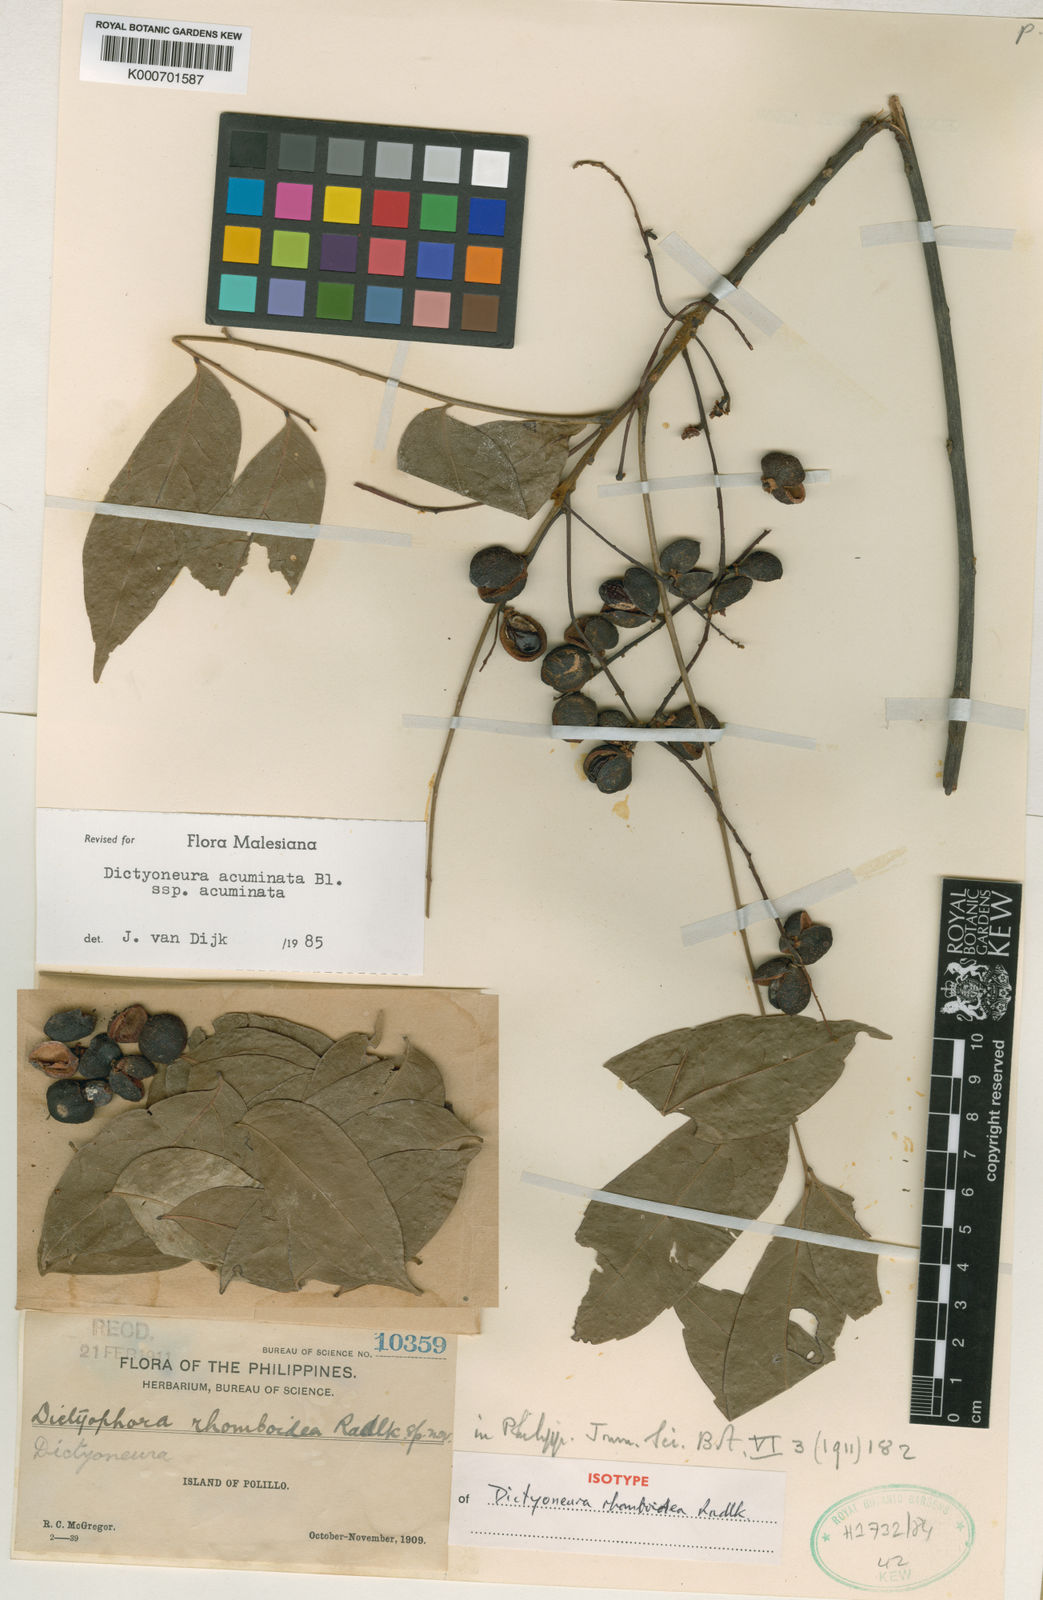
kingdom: Plantae
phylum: Tracheophyta
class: Magnoliopsida
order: Sapindales
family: Sapindaceae
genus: Dictyoneura
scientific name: Dictyoneura acuminata
